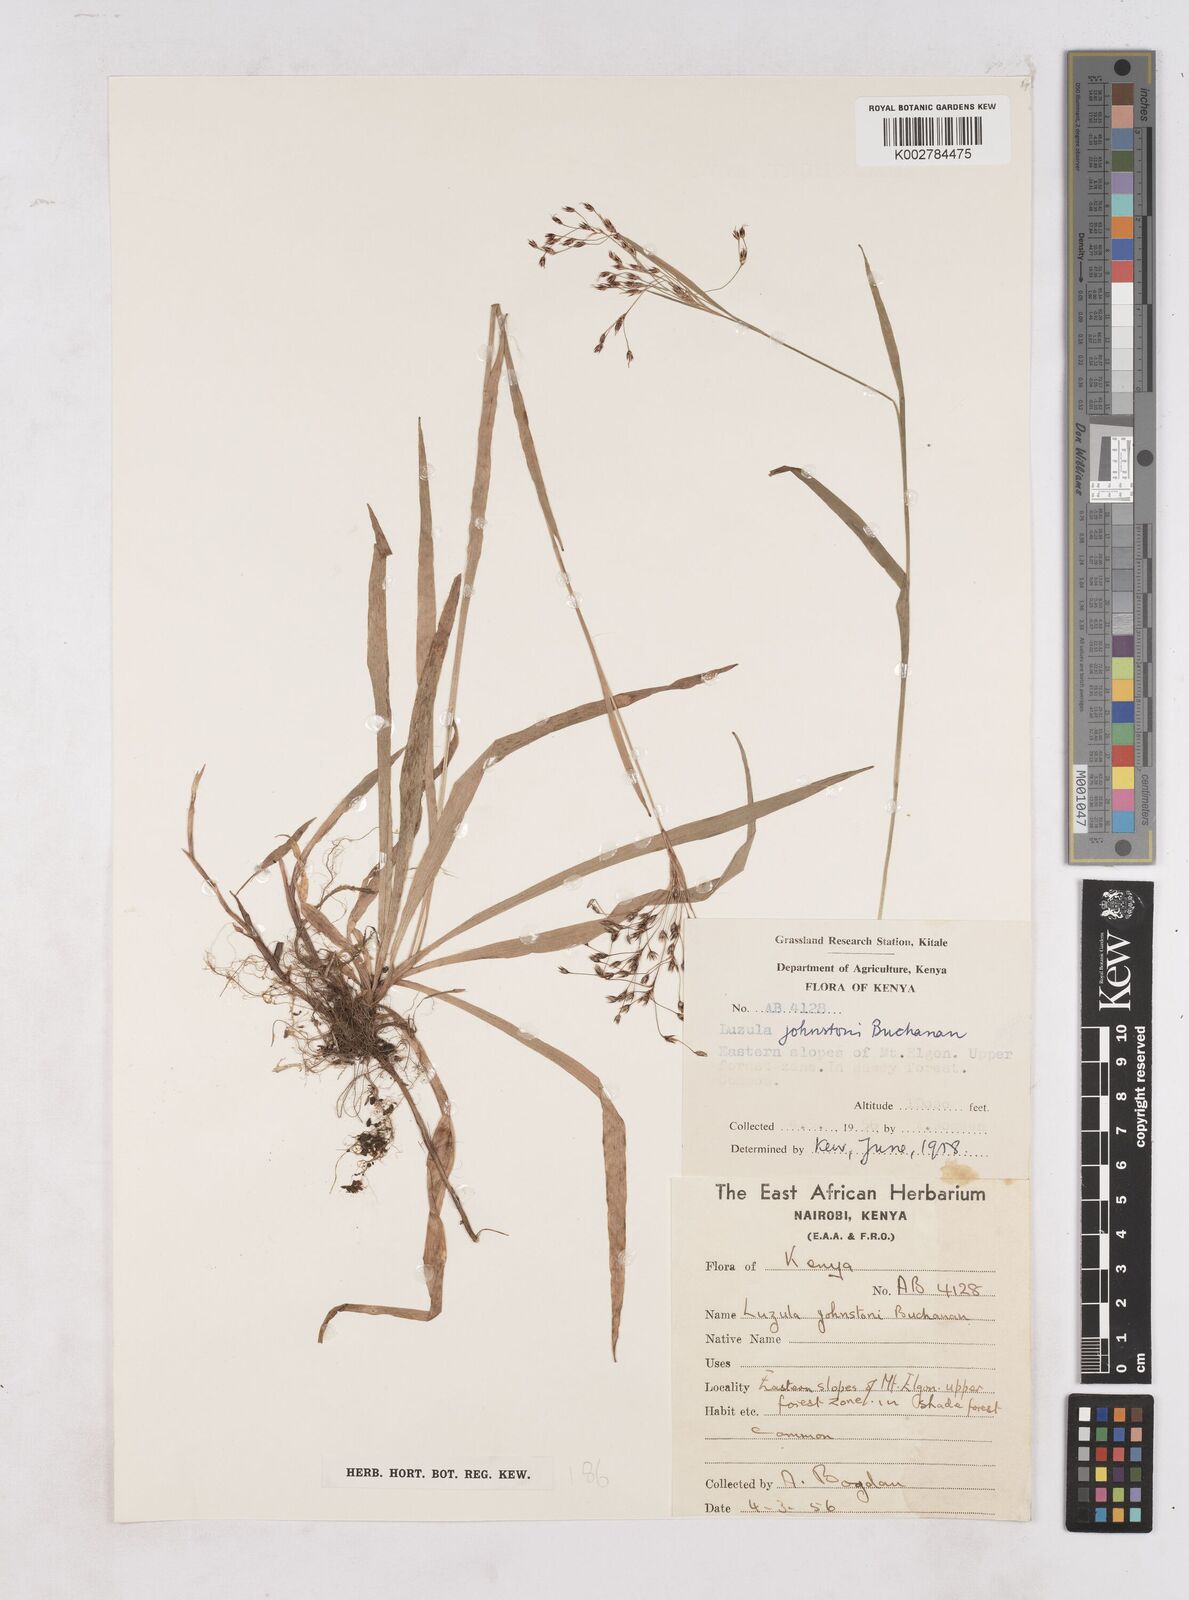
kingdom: Plantae
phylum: Tracheophyta
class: Liliopsida
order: Poales
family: Juncaceae
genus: Luzula
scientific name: Luzula johnstonii
